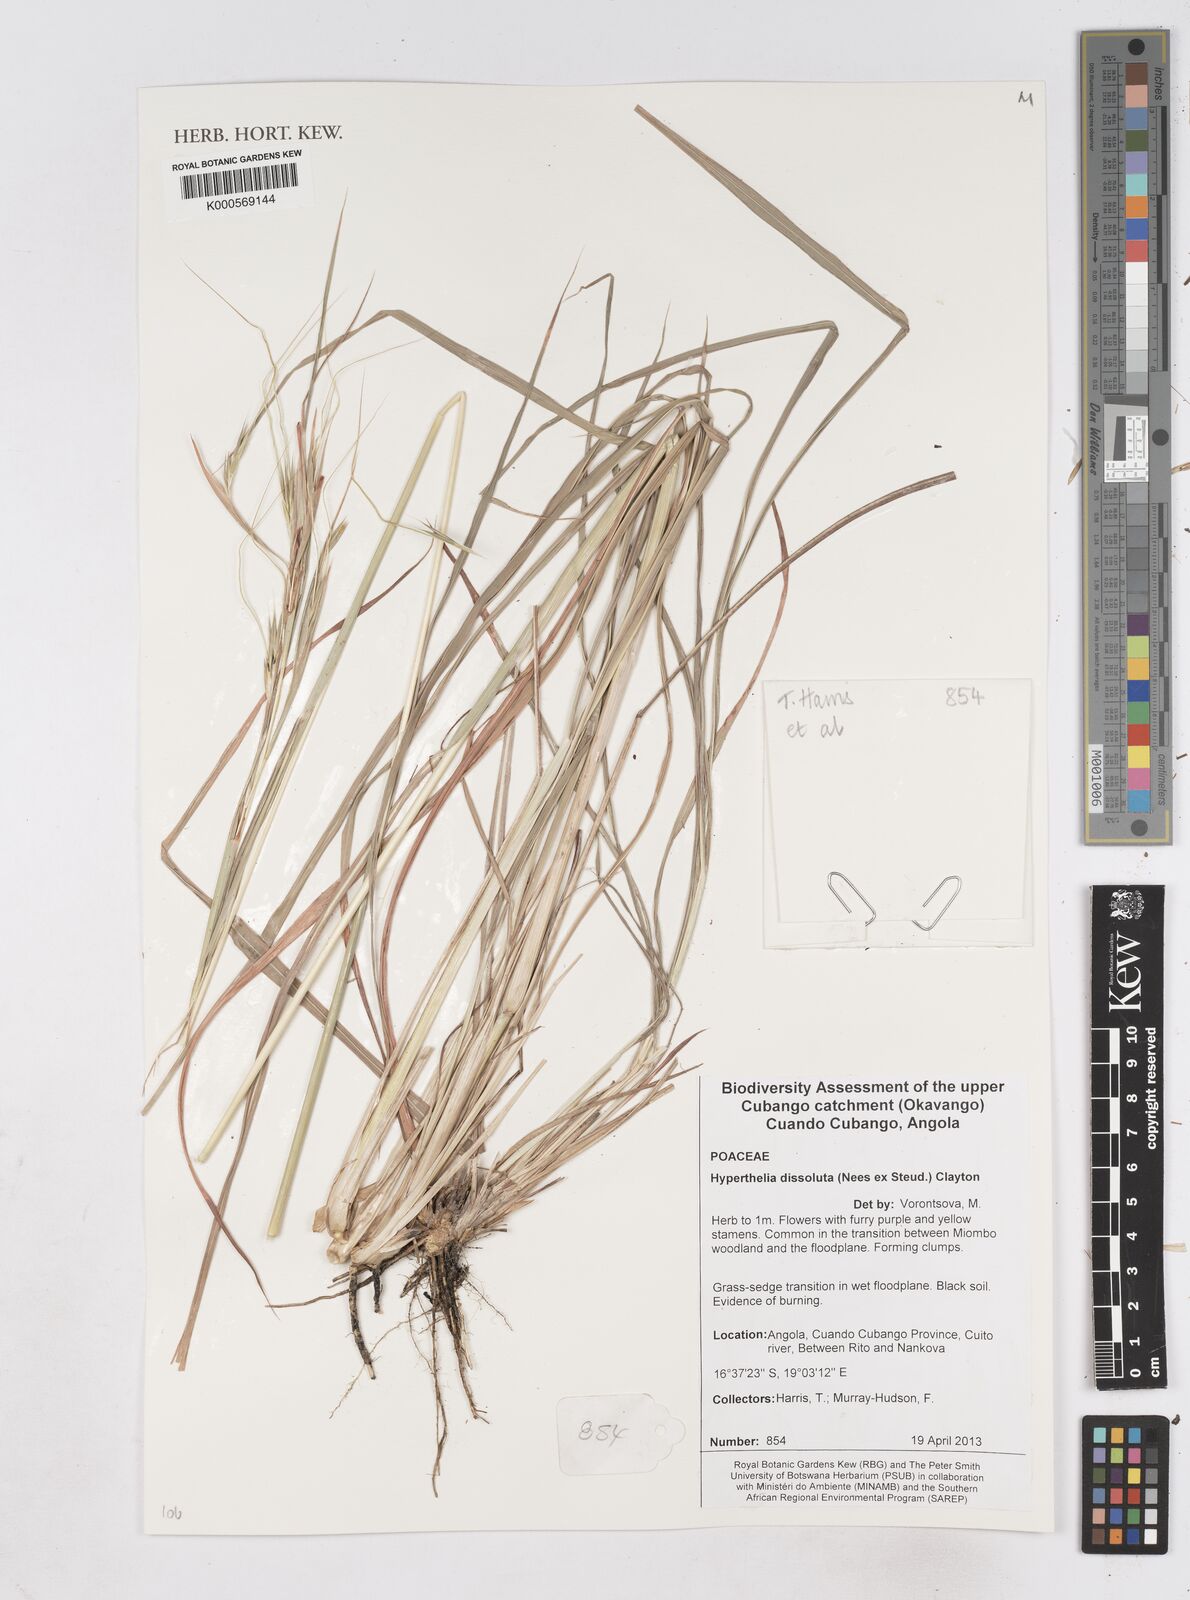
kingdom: Plantae
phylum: Tracheophyta
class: Liliopsida
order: Poales
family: Poaceae
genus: Hyperthelia
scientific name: Hyperthelia dissoluta
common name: Yellow thatching grass
